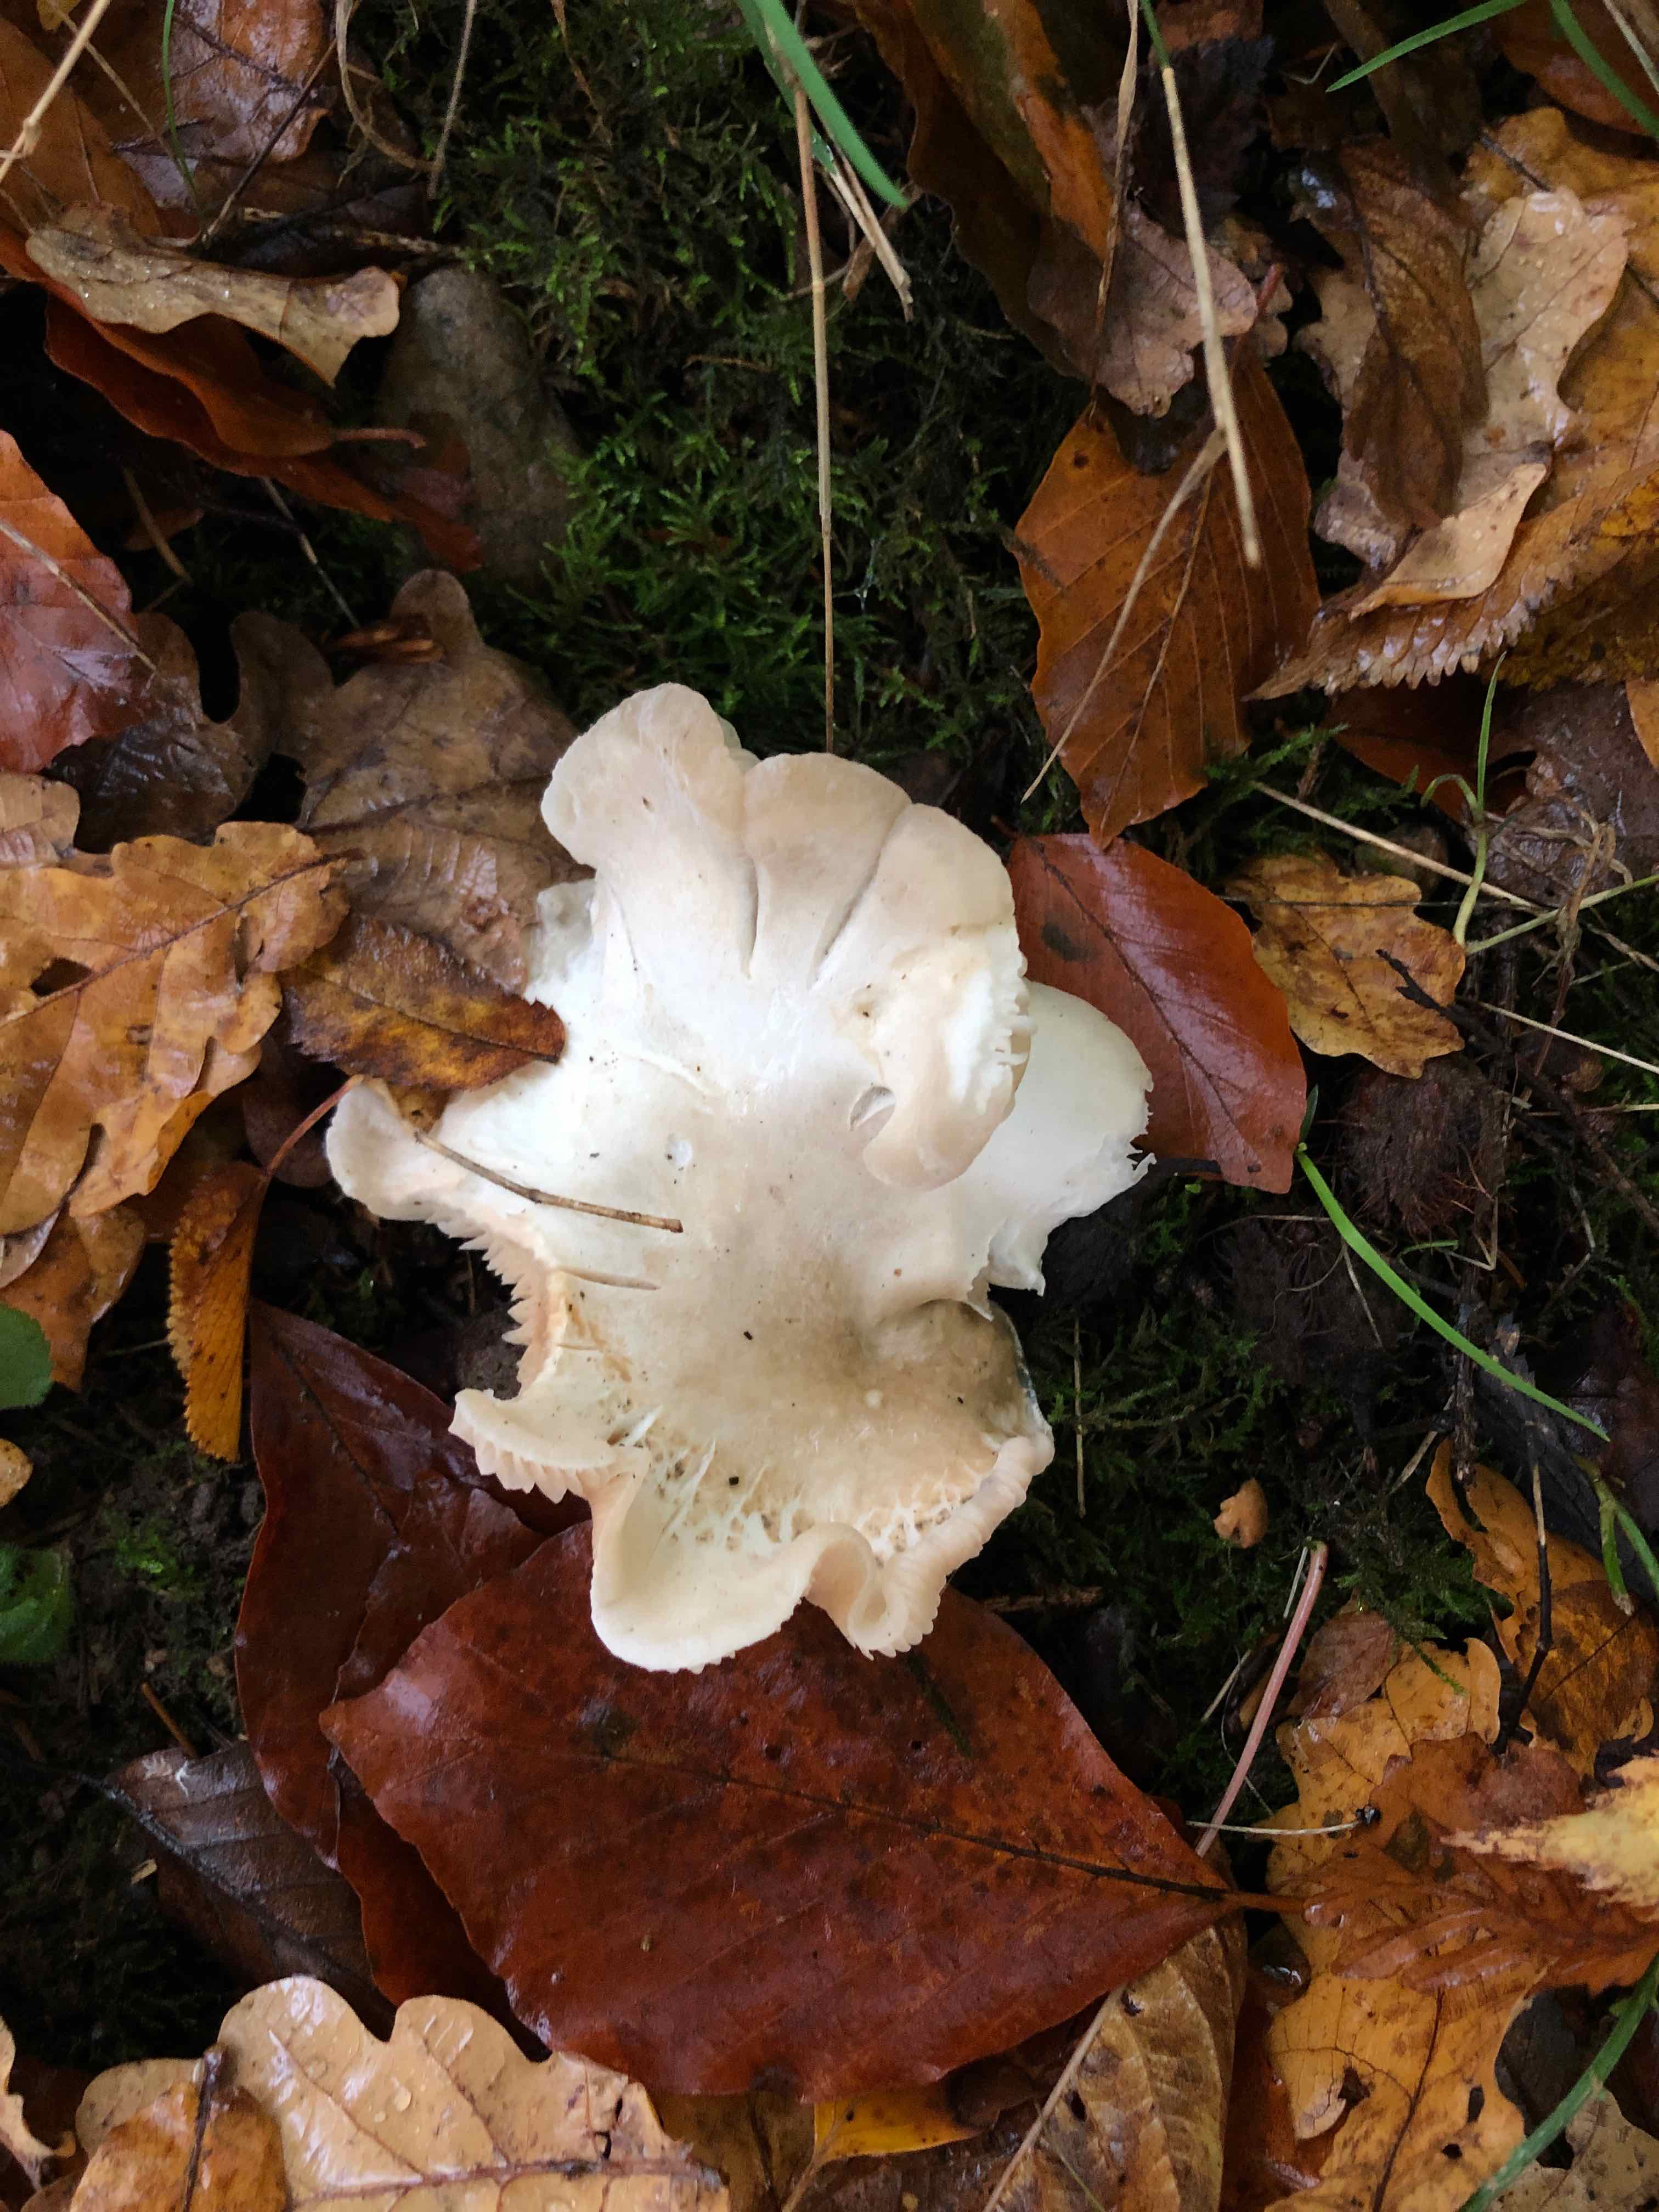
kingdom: Fungi
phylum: Basidiomycota
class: Agaricomycetes
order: Agaricales
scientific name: Agaricales
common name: champignonordenen
